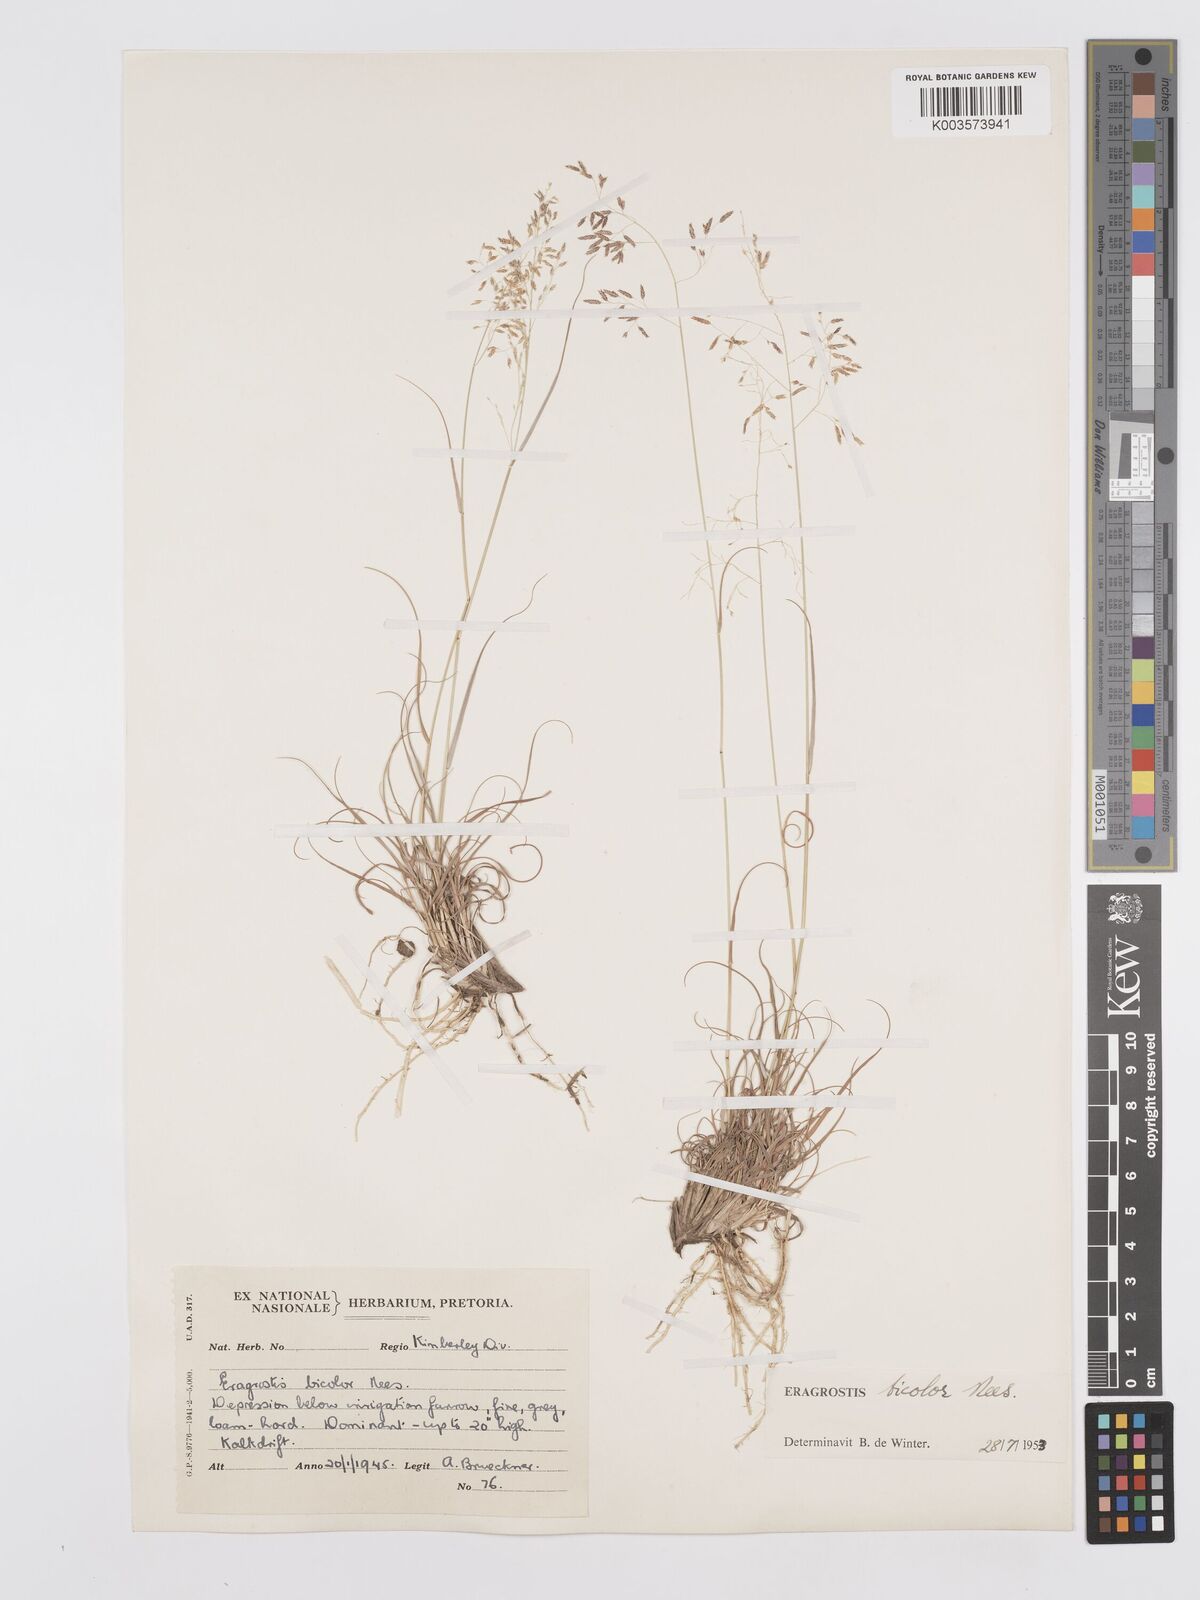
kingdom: Plantae
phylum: Tracheophyta
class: Liliopsida
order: Poales
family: Poaceae
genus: Eragrostis
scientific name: Eragrostis
